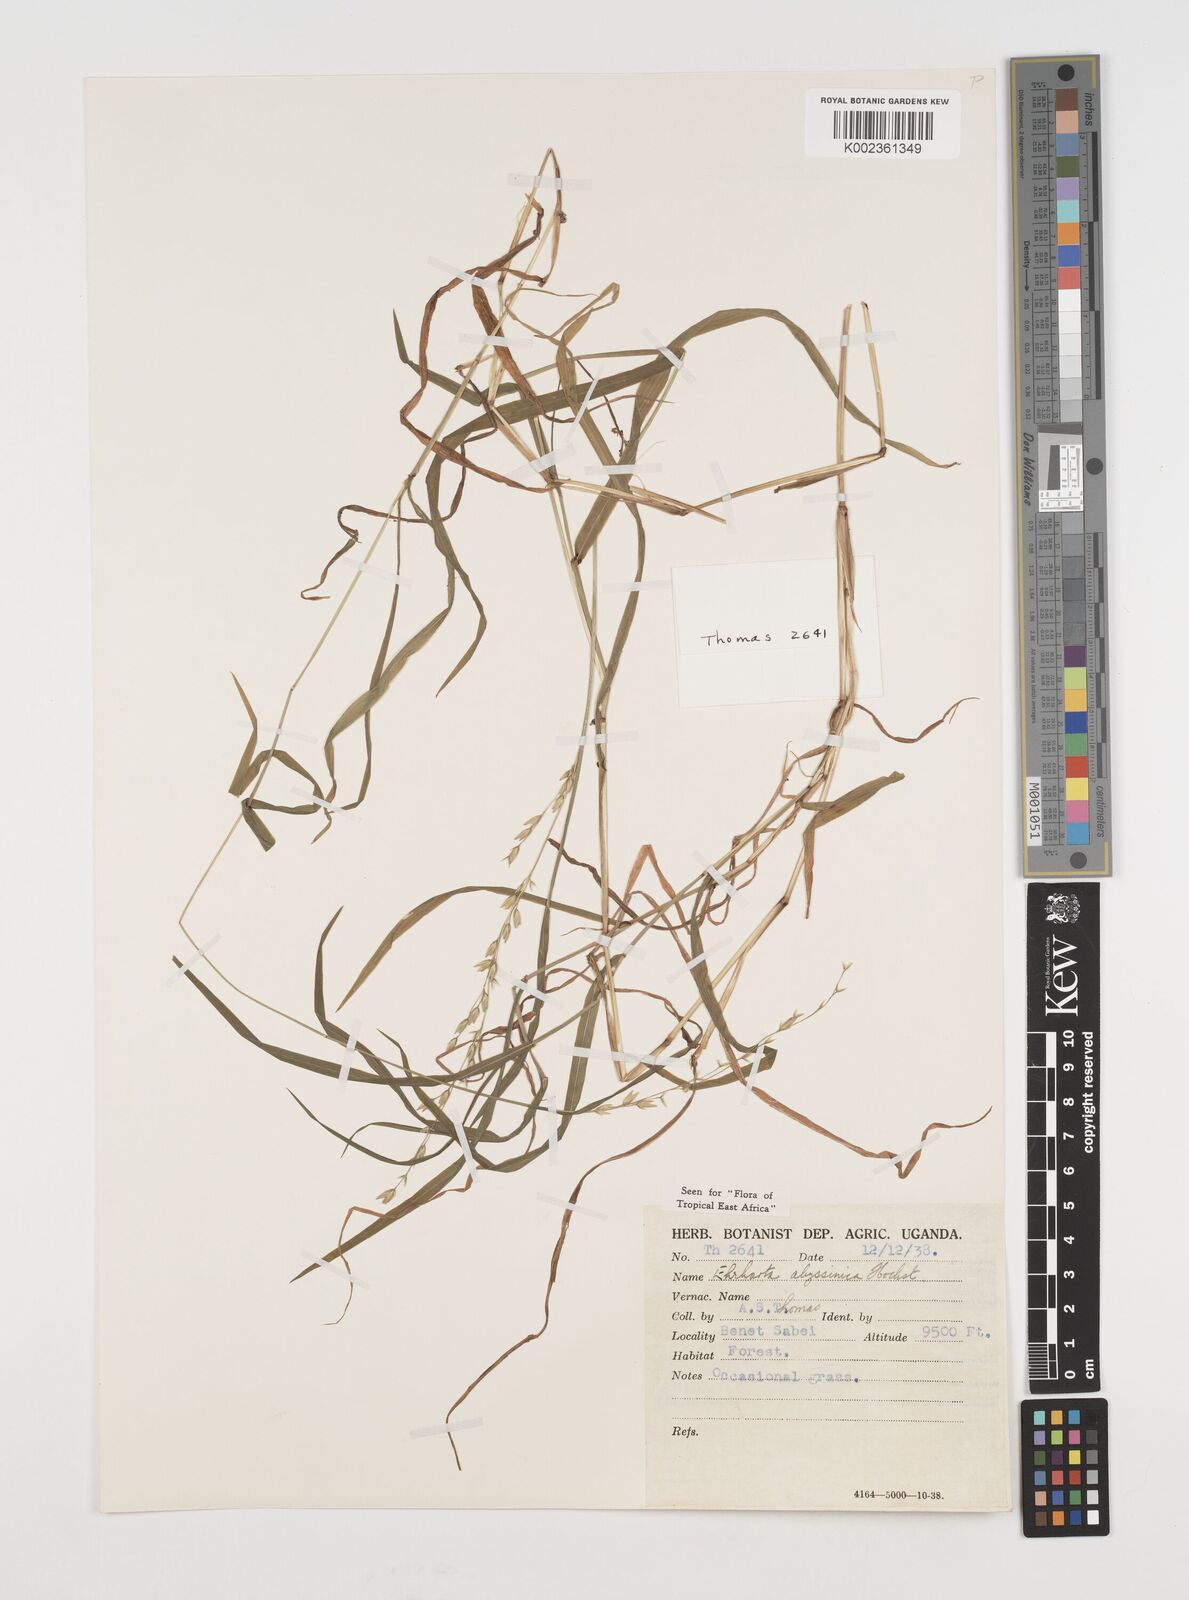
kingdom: Plantae
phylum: Tracheophyta
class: Liliopsida
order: Poales
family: Poaceae
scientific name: Poaceae
